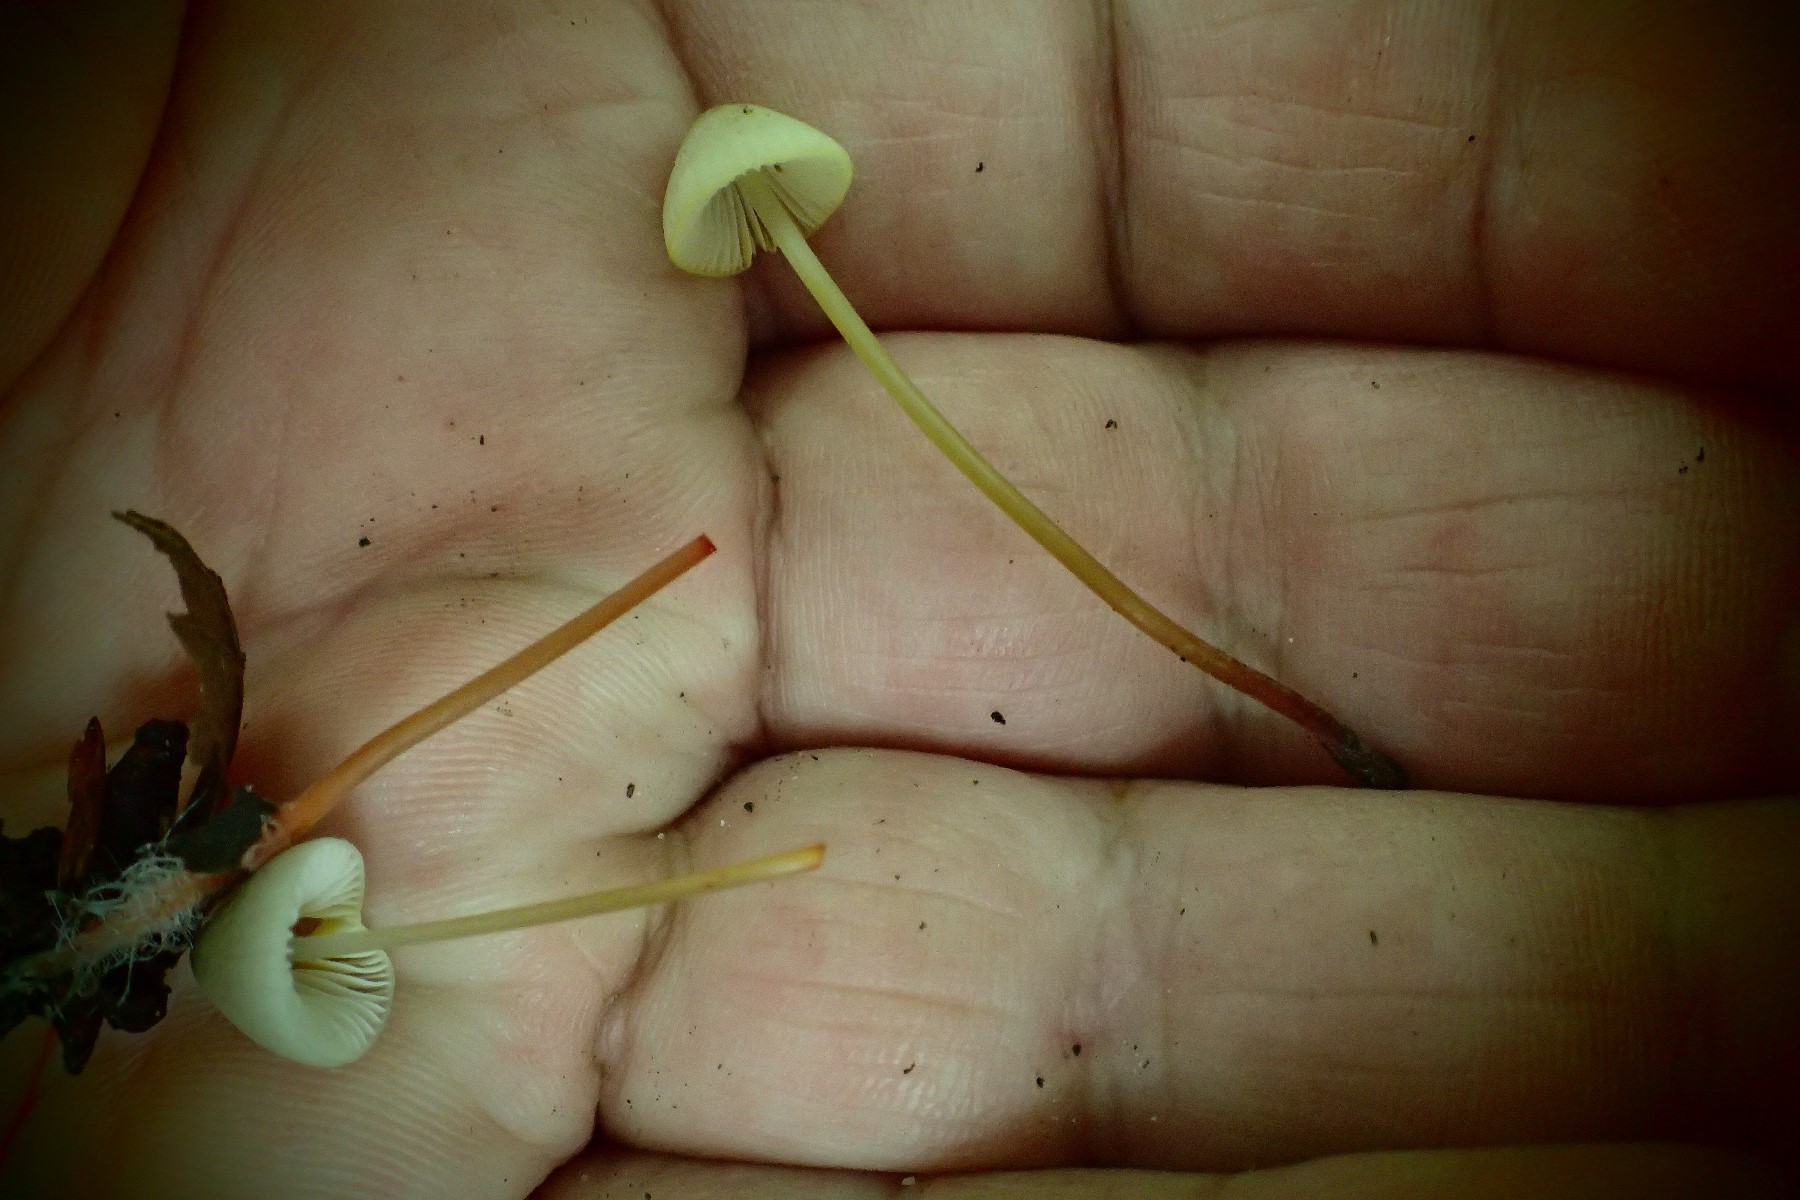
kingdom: Fungi
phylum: Basidiomycota
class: Agaricomycetes
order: Agaricales
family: Mycenaceae
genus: Mycena
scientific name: Mycena crocata
